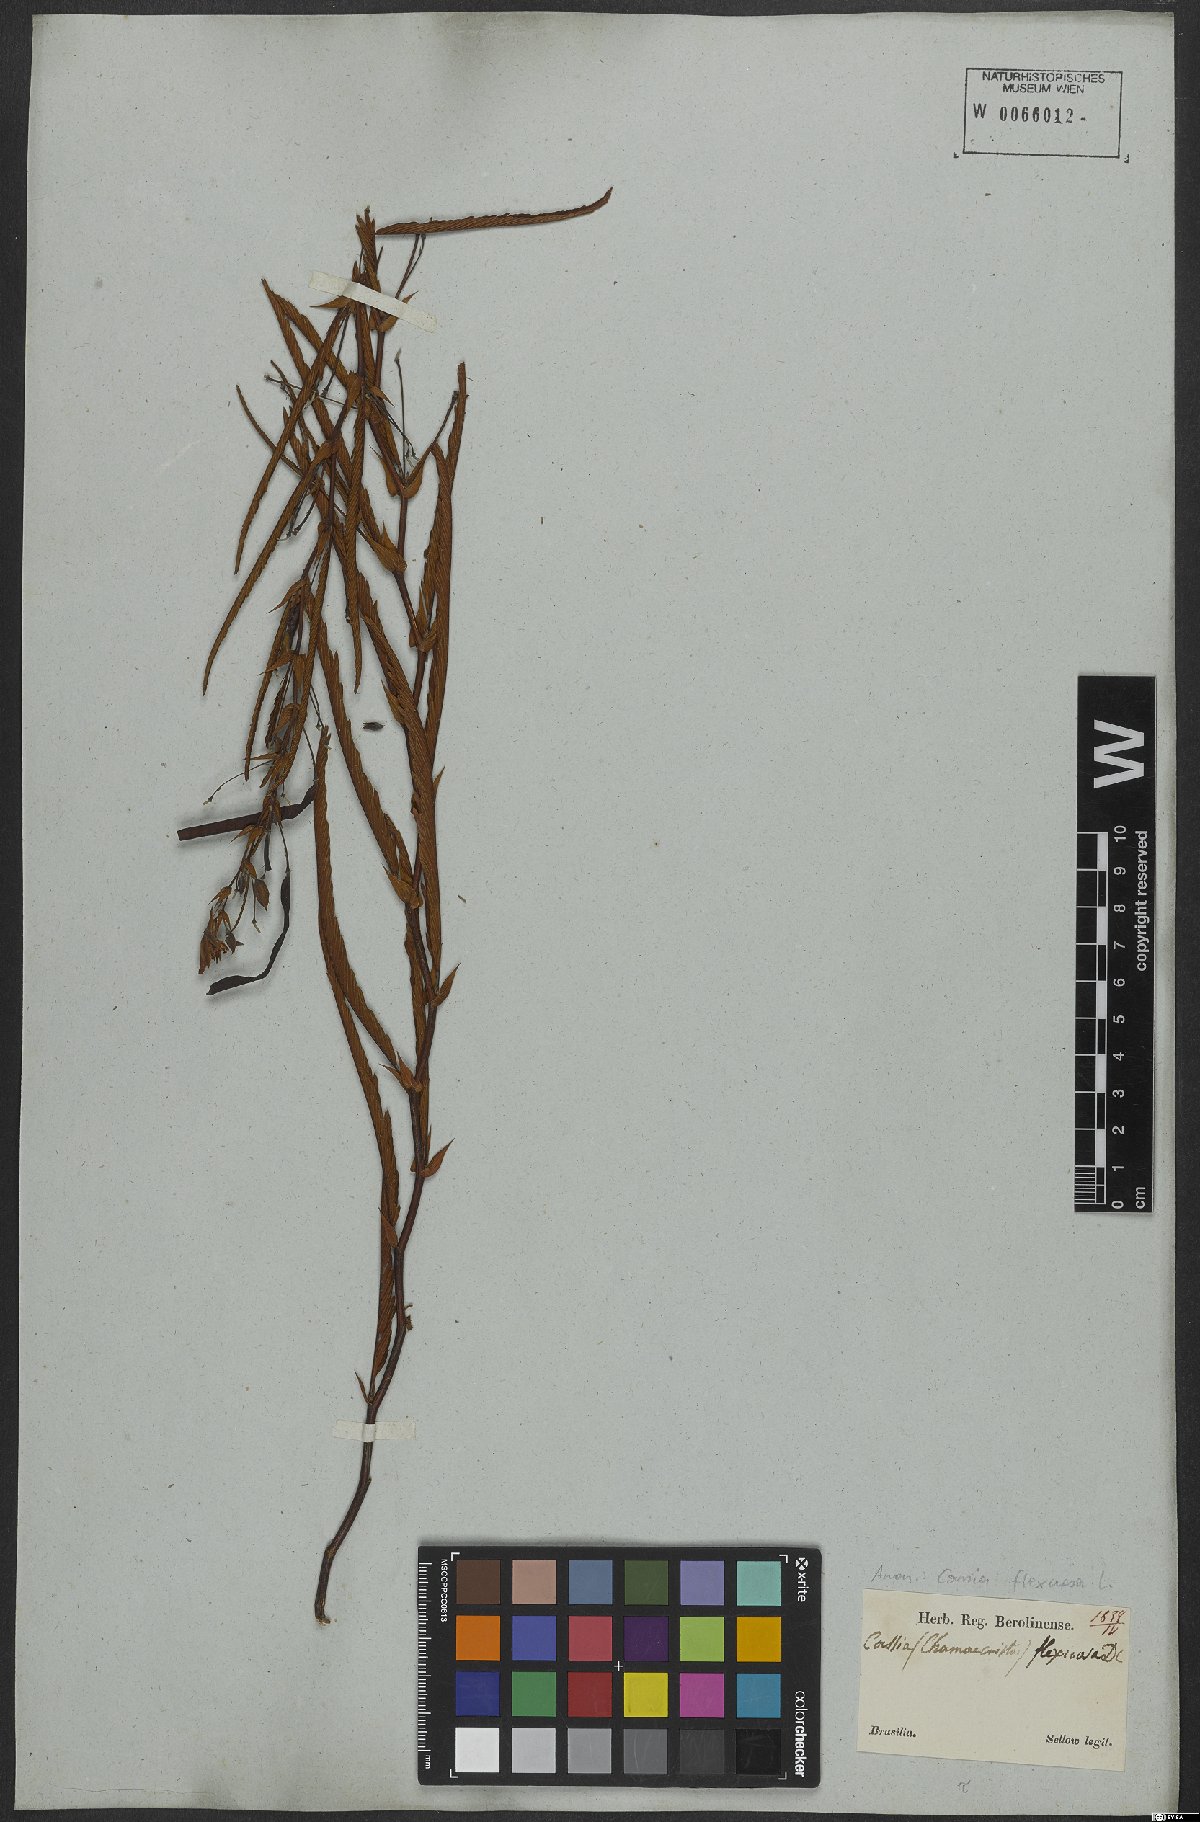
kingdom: Plantae
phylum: Tracheophyta
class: Magnoliopsida
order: Fabales
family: Fabaceae
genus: Chamaecrista
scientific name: Chamaecrista flexuosa
